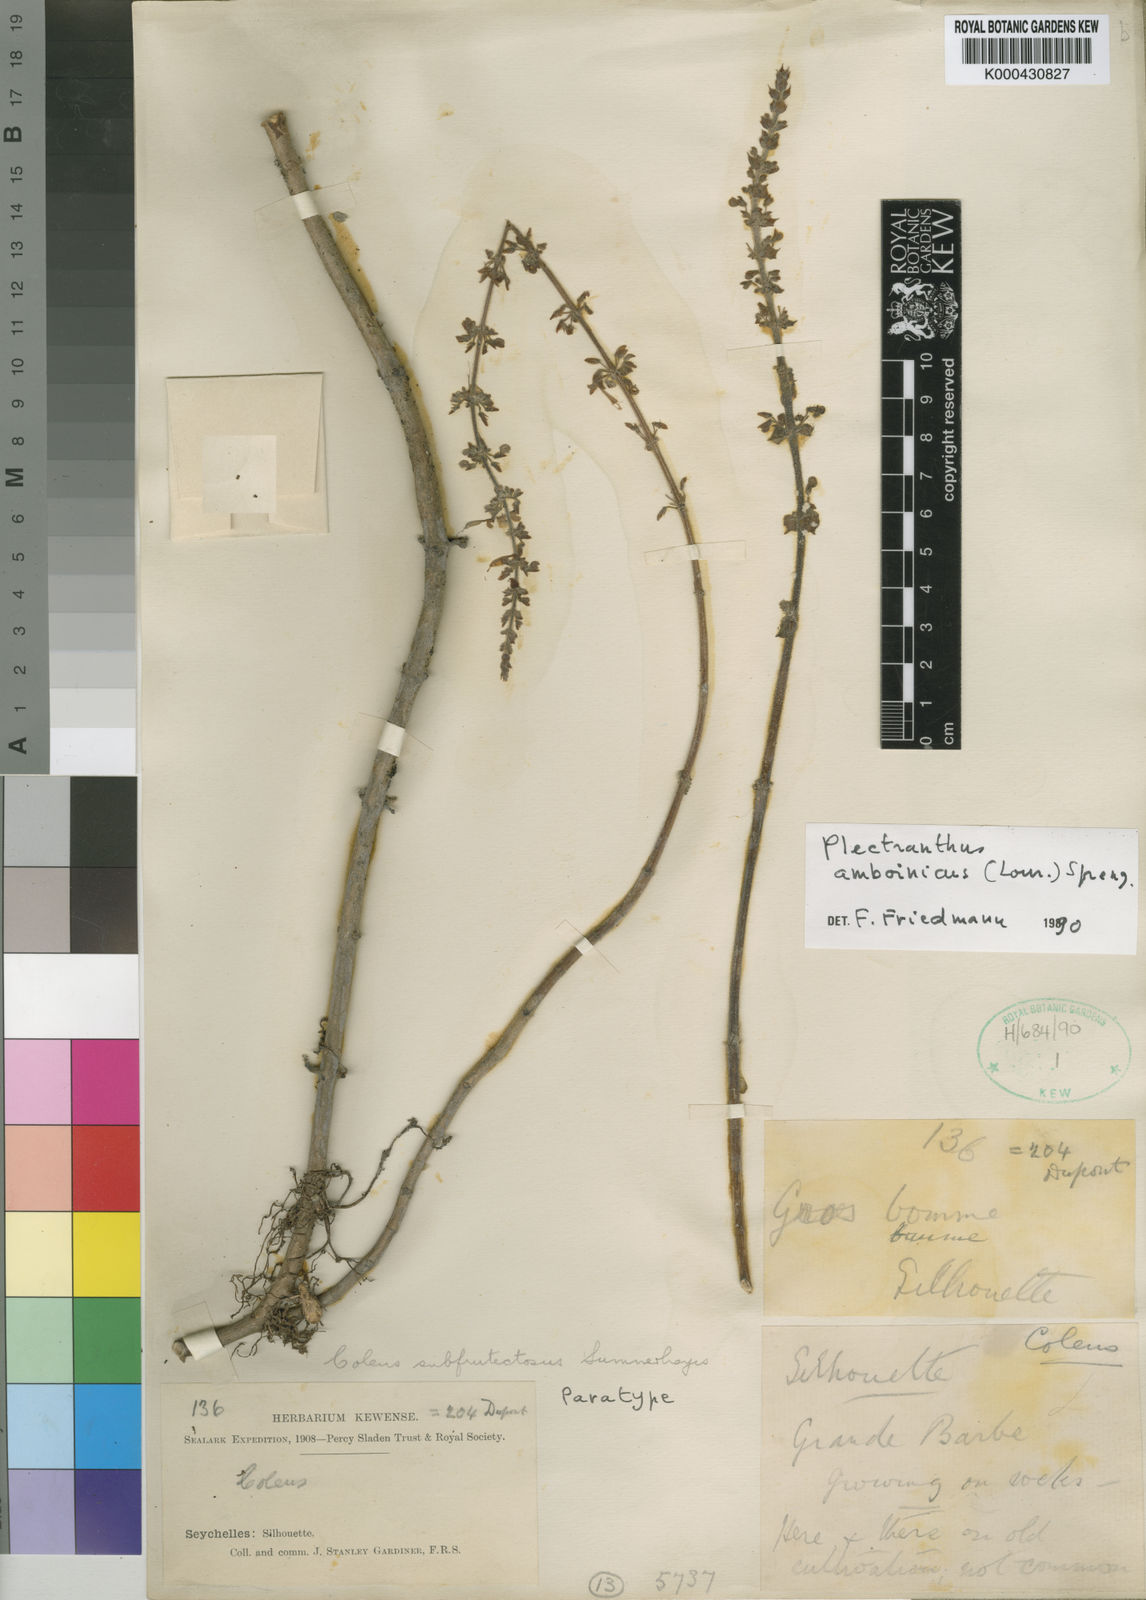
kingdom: Plantae
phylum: Tracheophyta
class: Magnoliopsida
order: Lamiales
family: Lamiaceae
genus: Plectranthus
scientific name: Plectranthus
